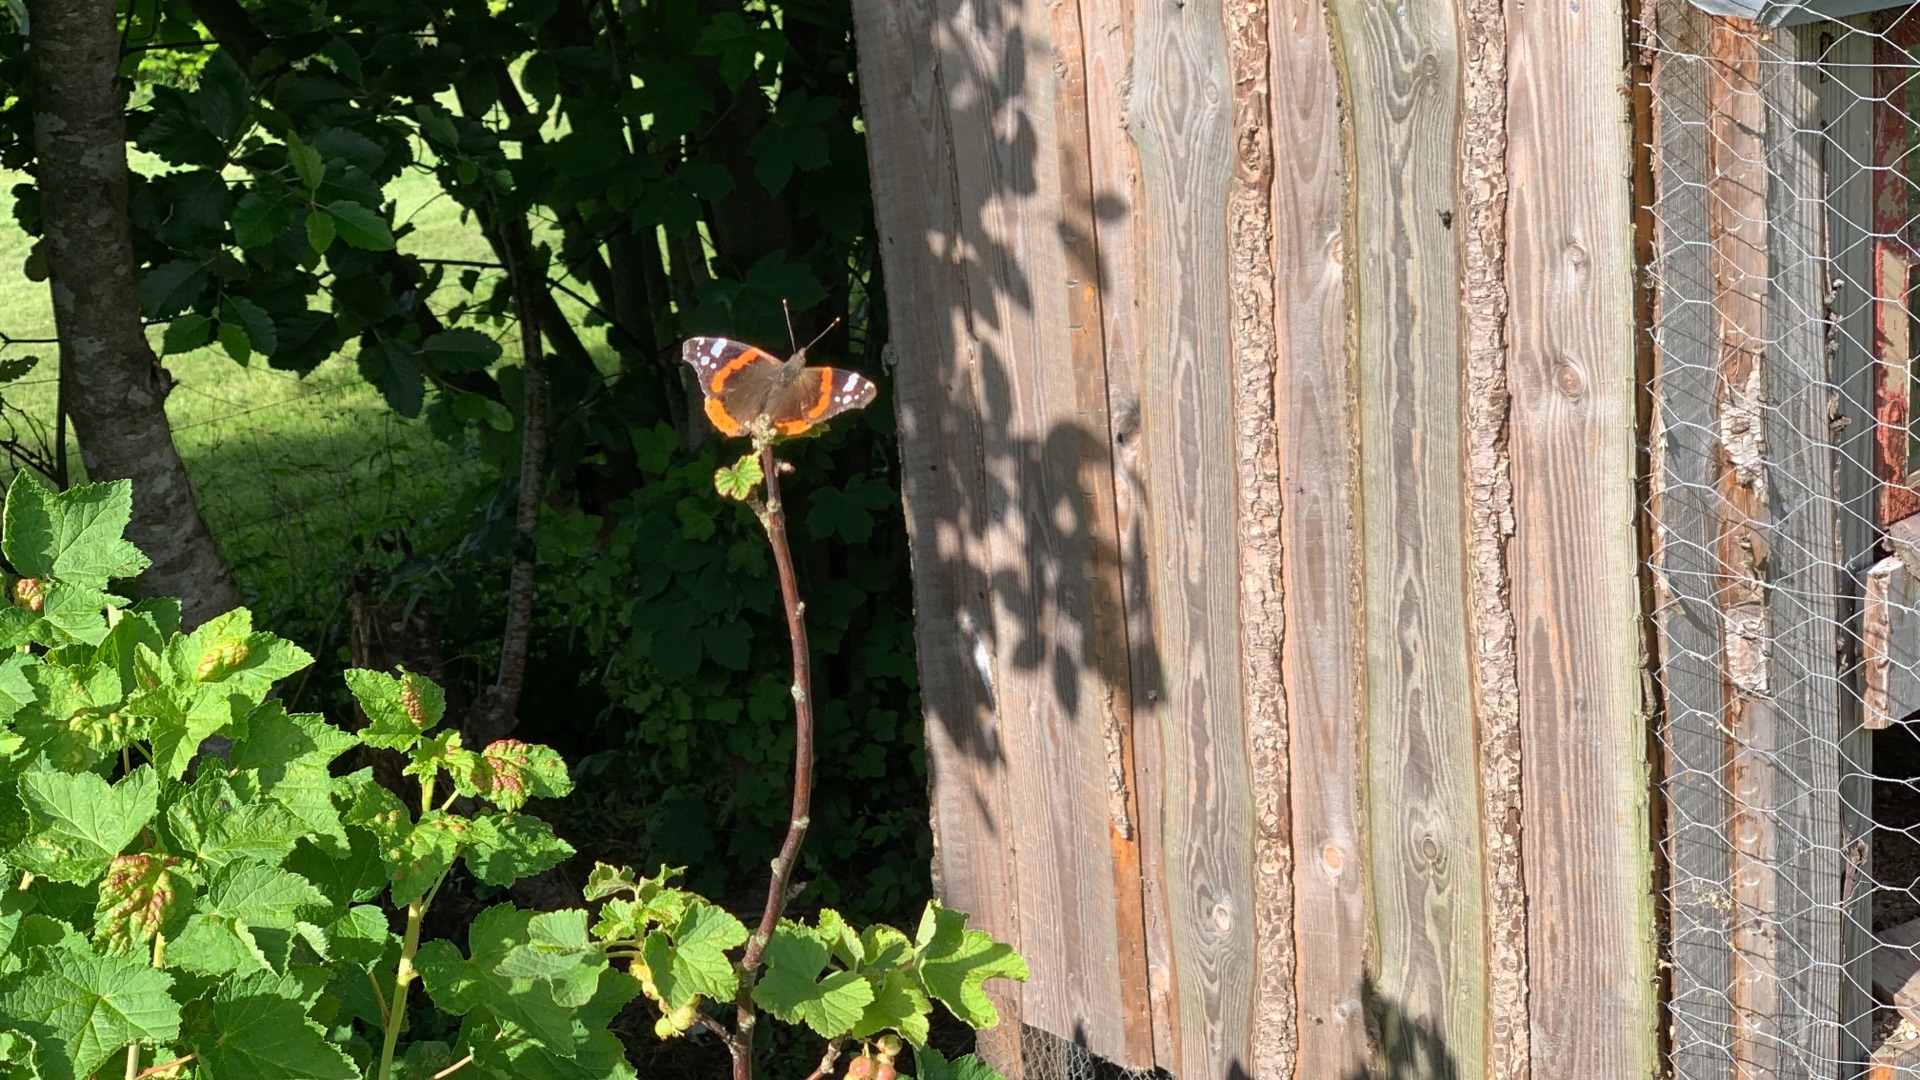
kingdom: Animalia
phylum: Arthropoda
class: Insecta
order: Lepidoptera
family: Nymphalidae
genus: Vanessa
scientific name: Vanessa atalanta
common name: Admiral
